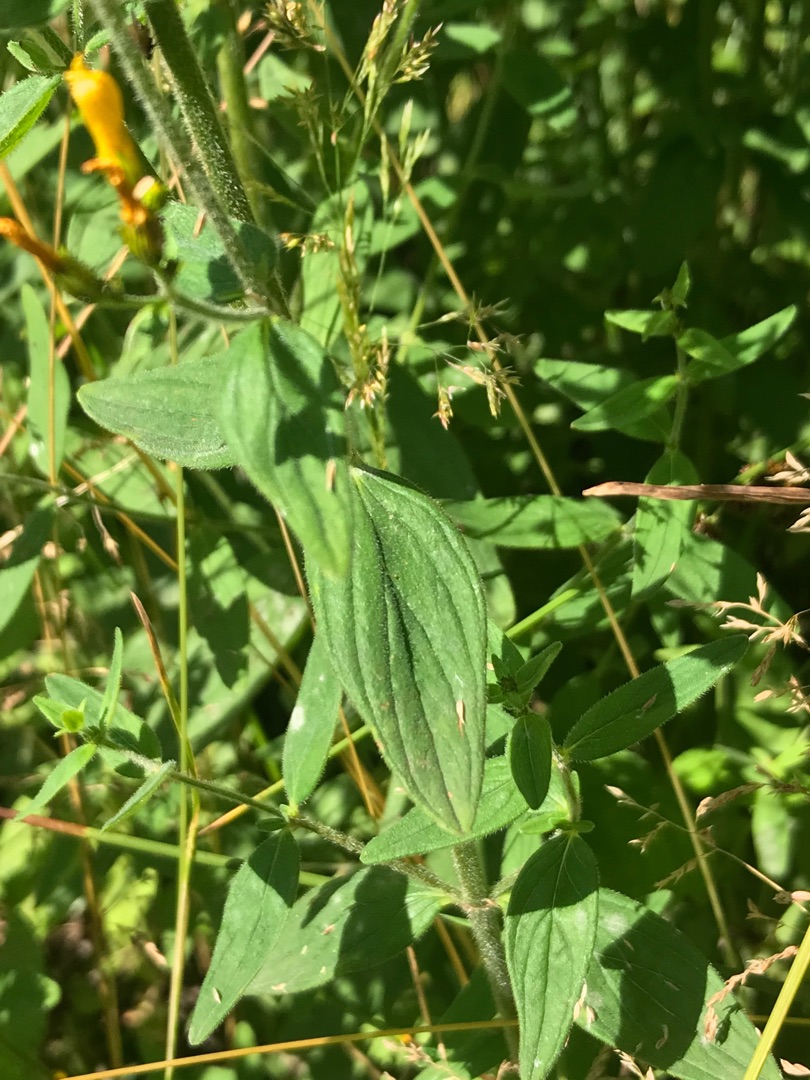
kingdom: Plantae
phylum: Tracheophyta
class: Magnoliopsida
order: Malpighiales
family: Hypericaceae
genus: Hypericum
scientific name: Hypericum hirsutum
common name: Lådden perikon
